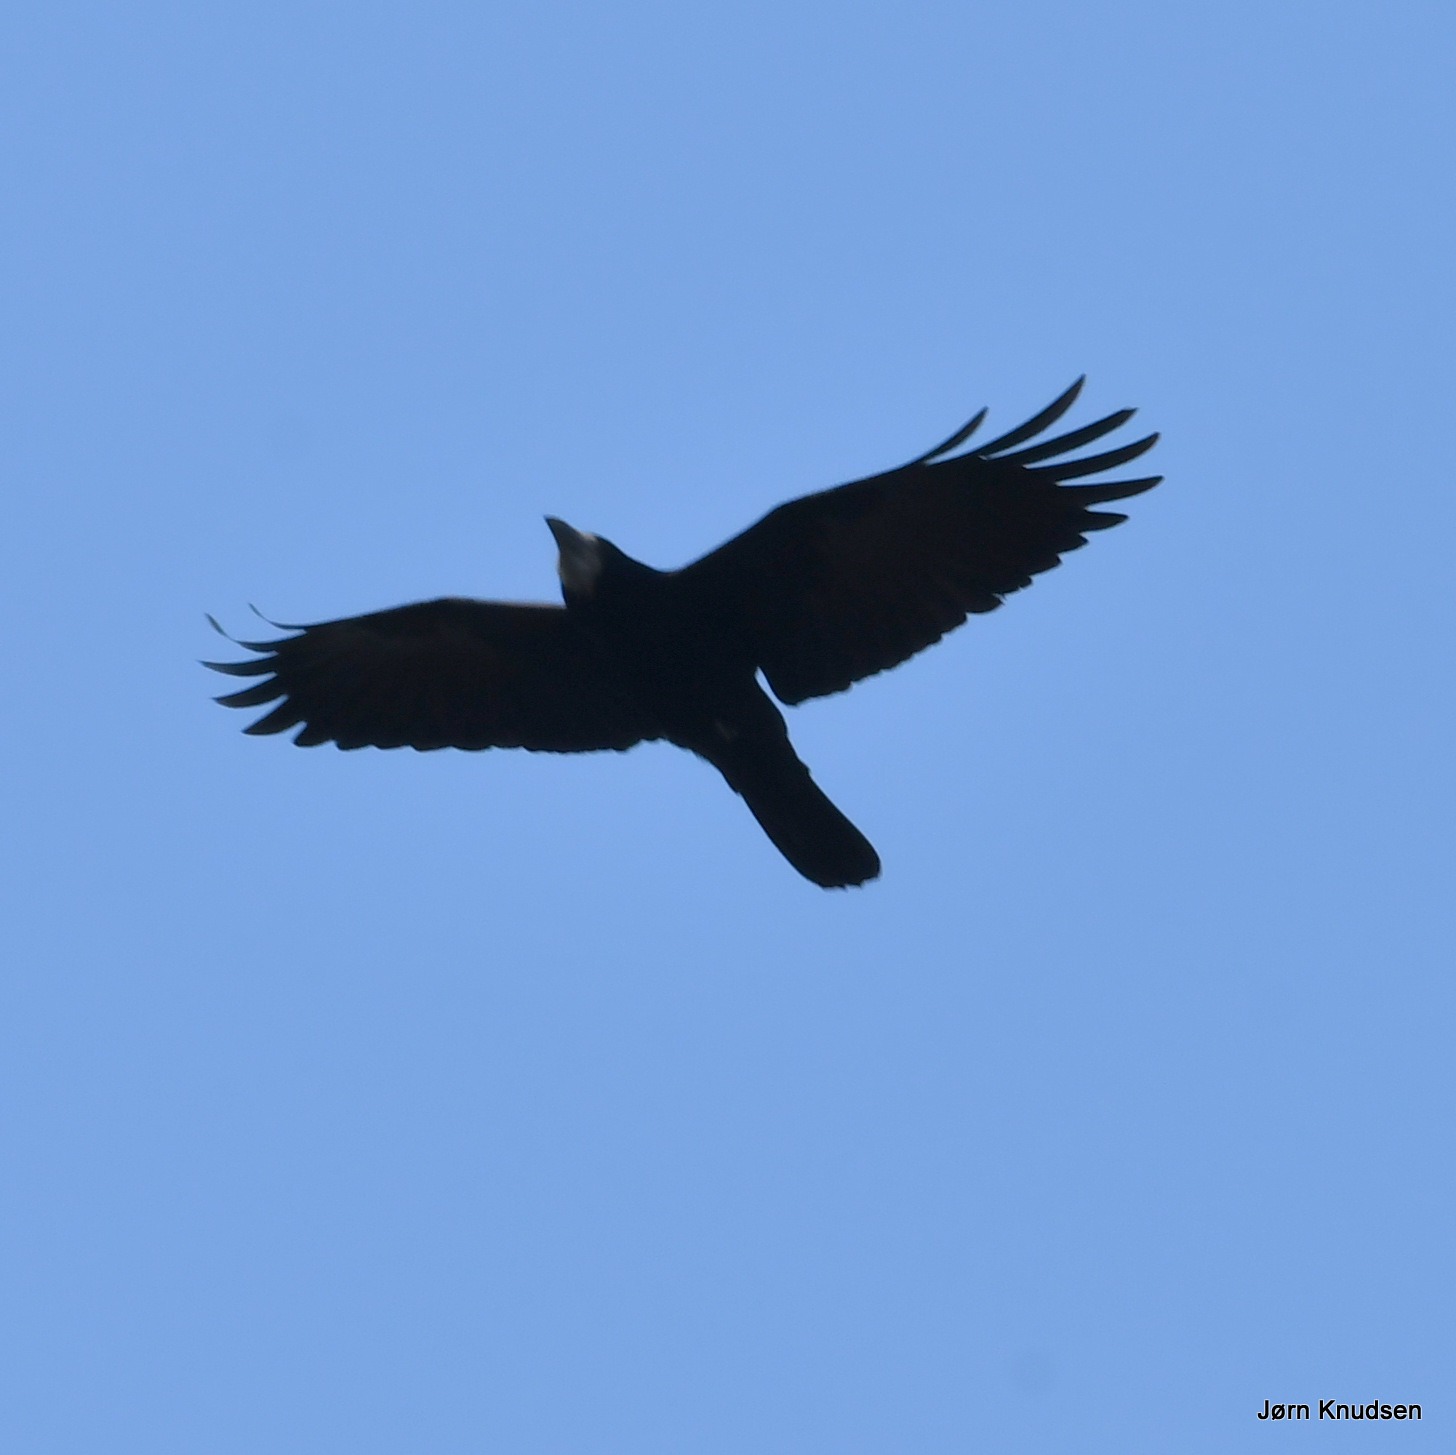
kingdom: Animalia
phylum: Chordata
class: Aves
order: Passeriformes
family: Corvidae
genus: Corvus
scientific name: Corvus frugilegus
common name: Råge
